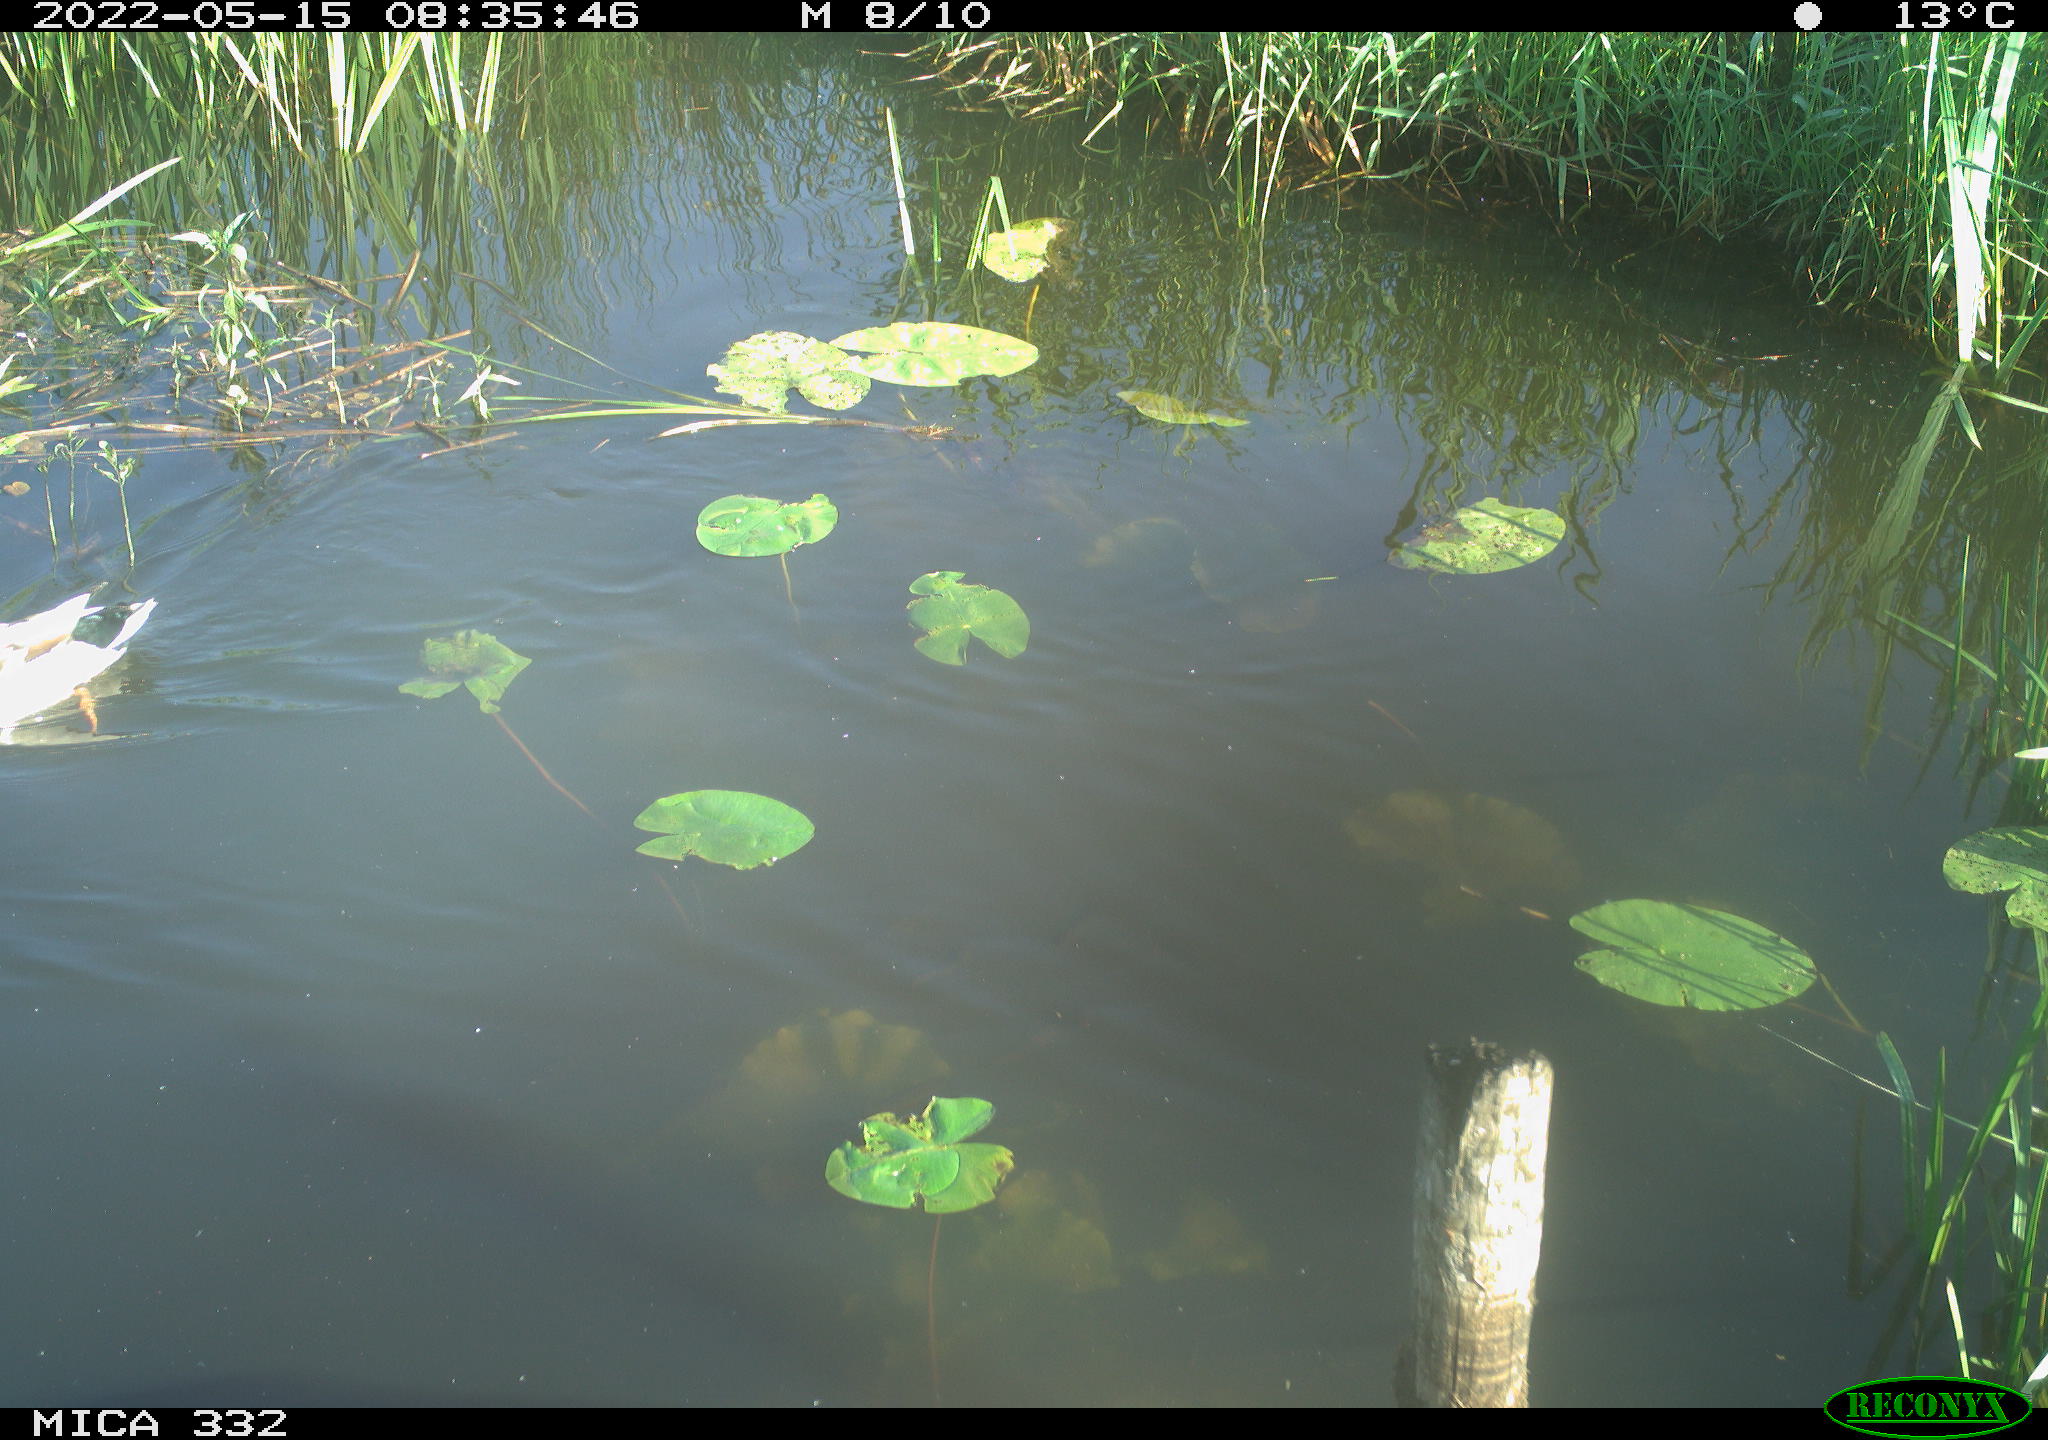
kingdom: Animalia
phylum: Chordata
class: Aves
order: Anseriformes
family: Anatidae
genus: Anas
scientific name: Anas platyrhynchos
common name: Mallard
